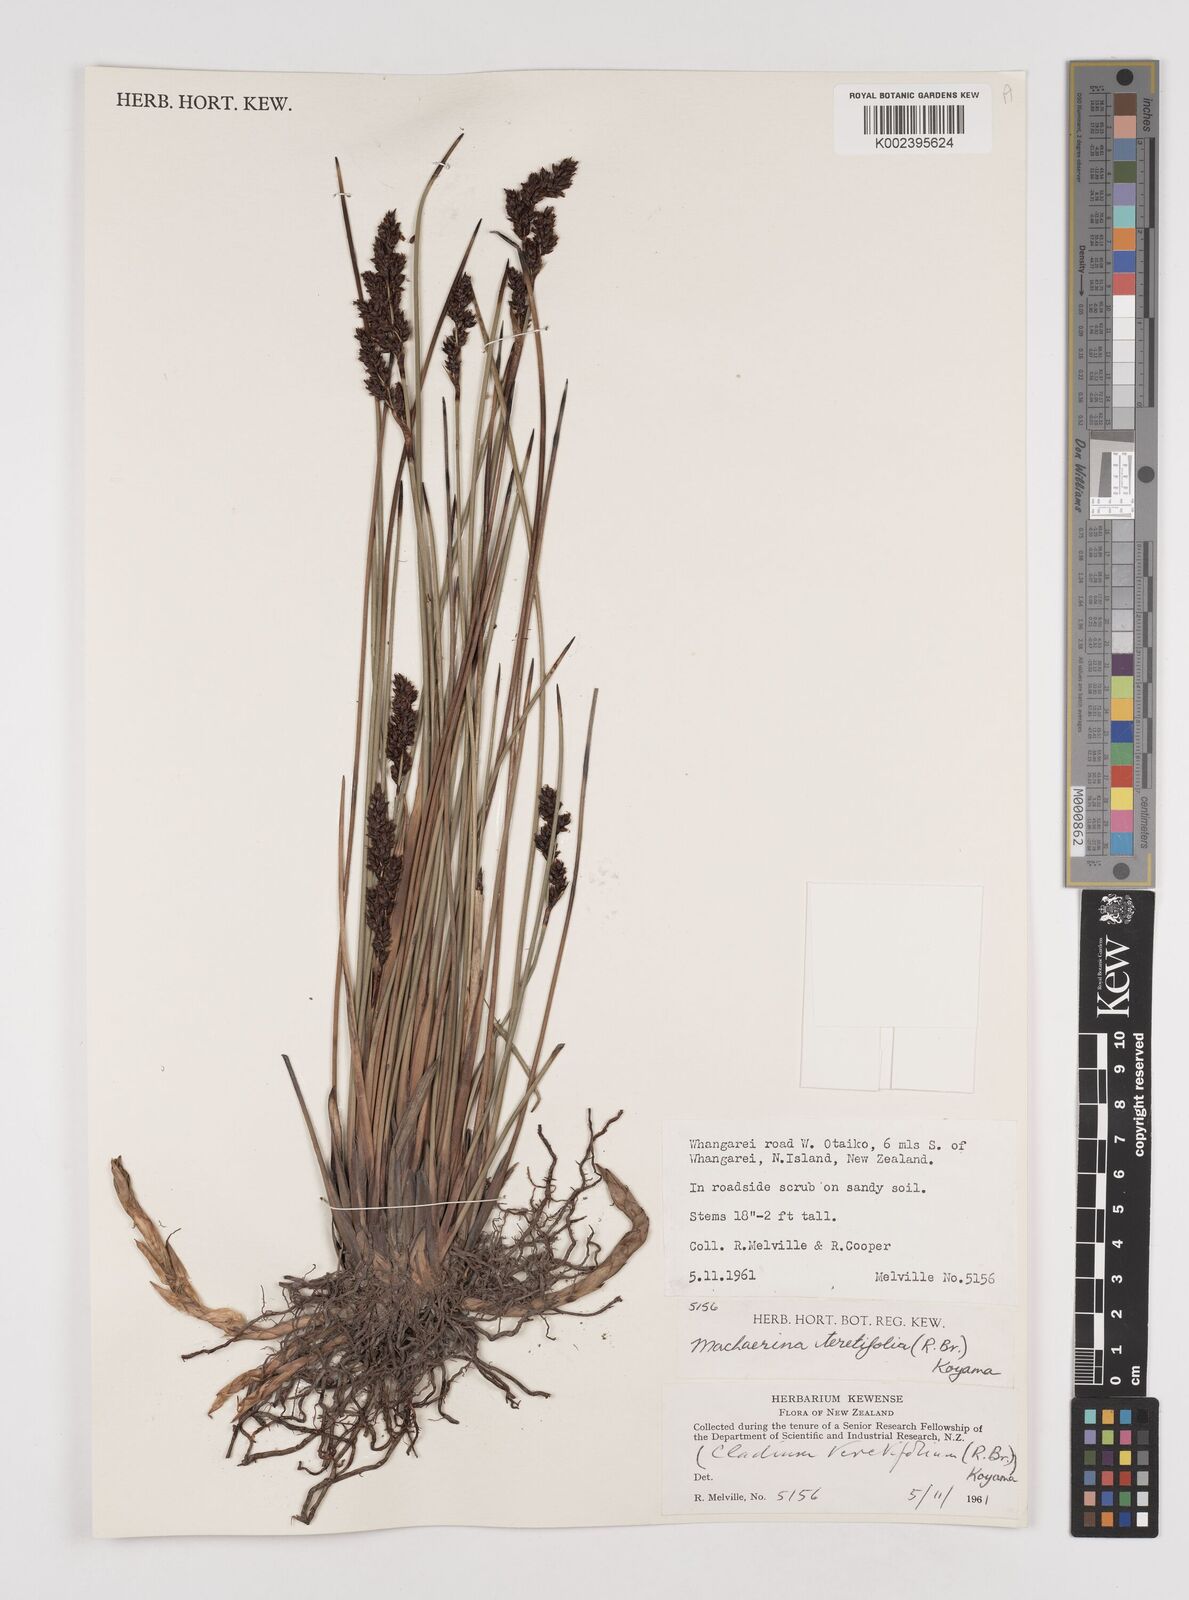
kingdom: Plantae
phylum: Tracheophyta
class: Liliopsida
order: Poales
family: Cyperaceae
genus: Machaerina
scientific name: Machaerina teretifolia
